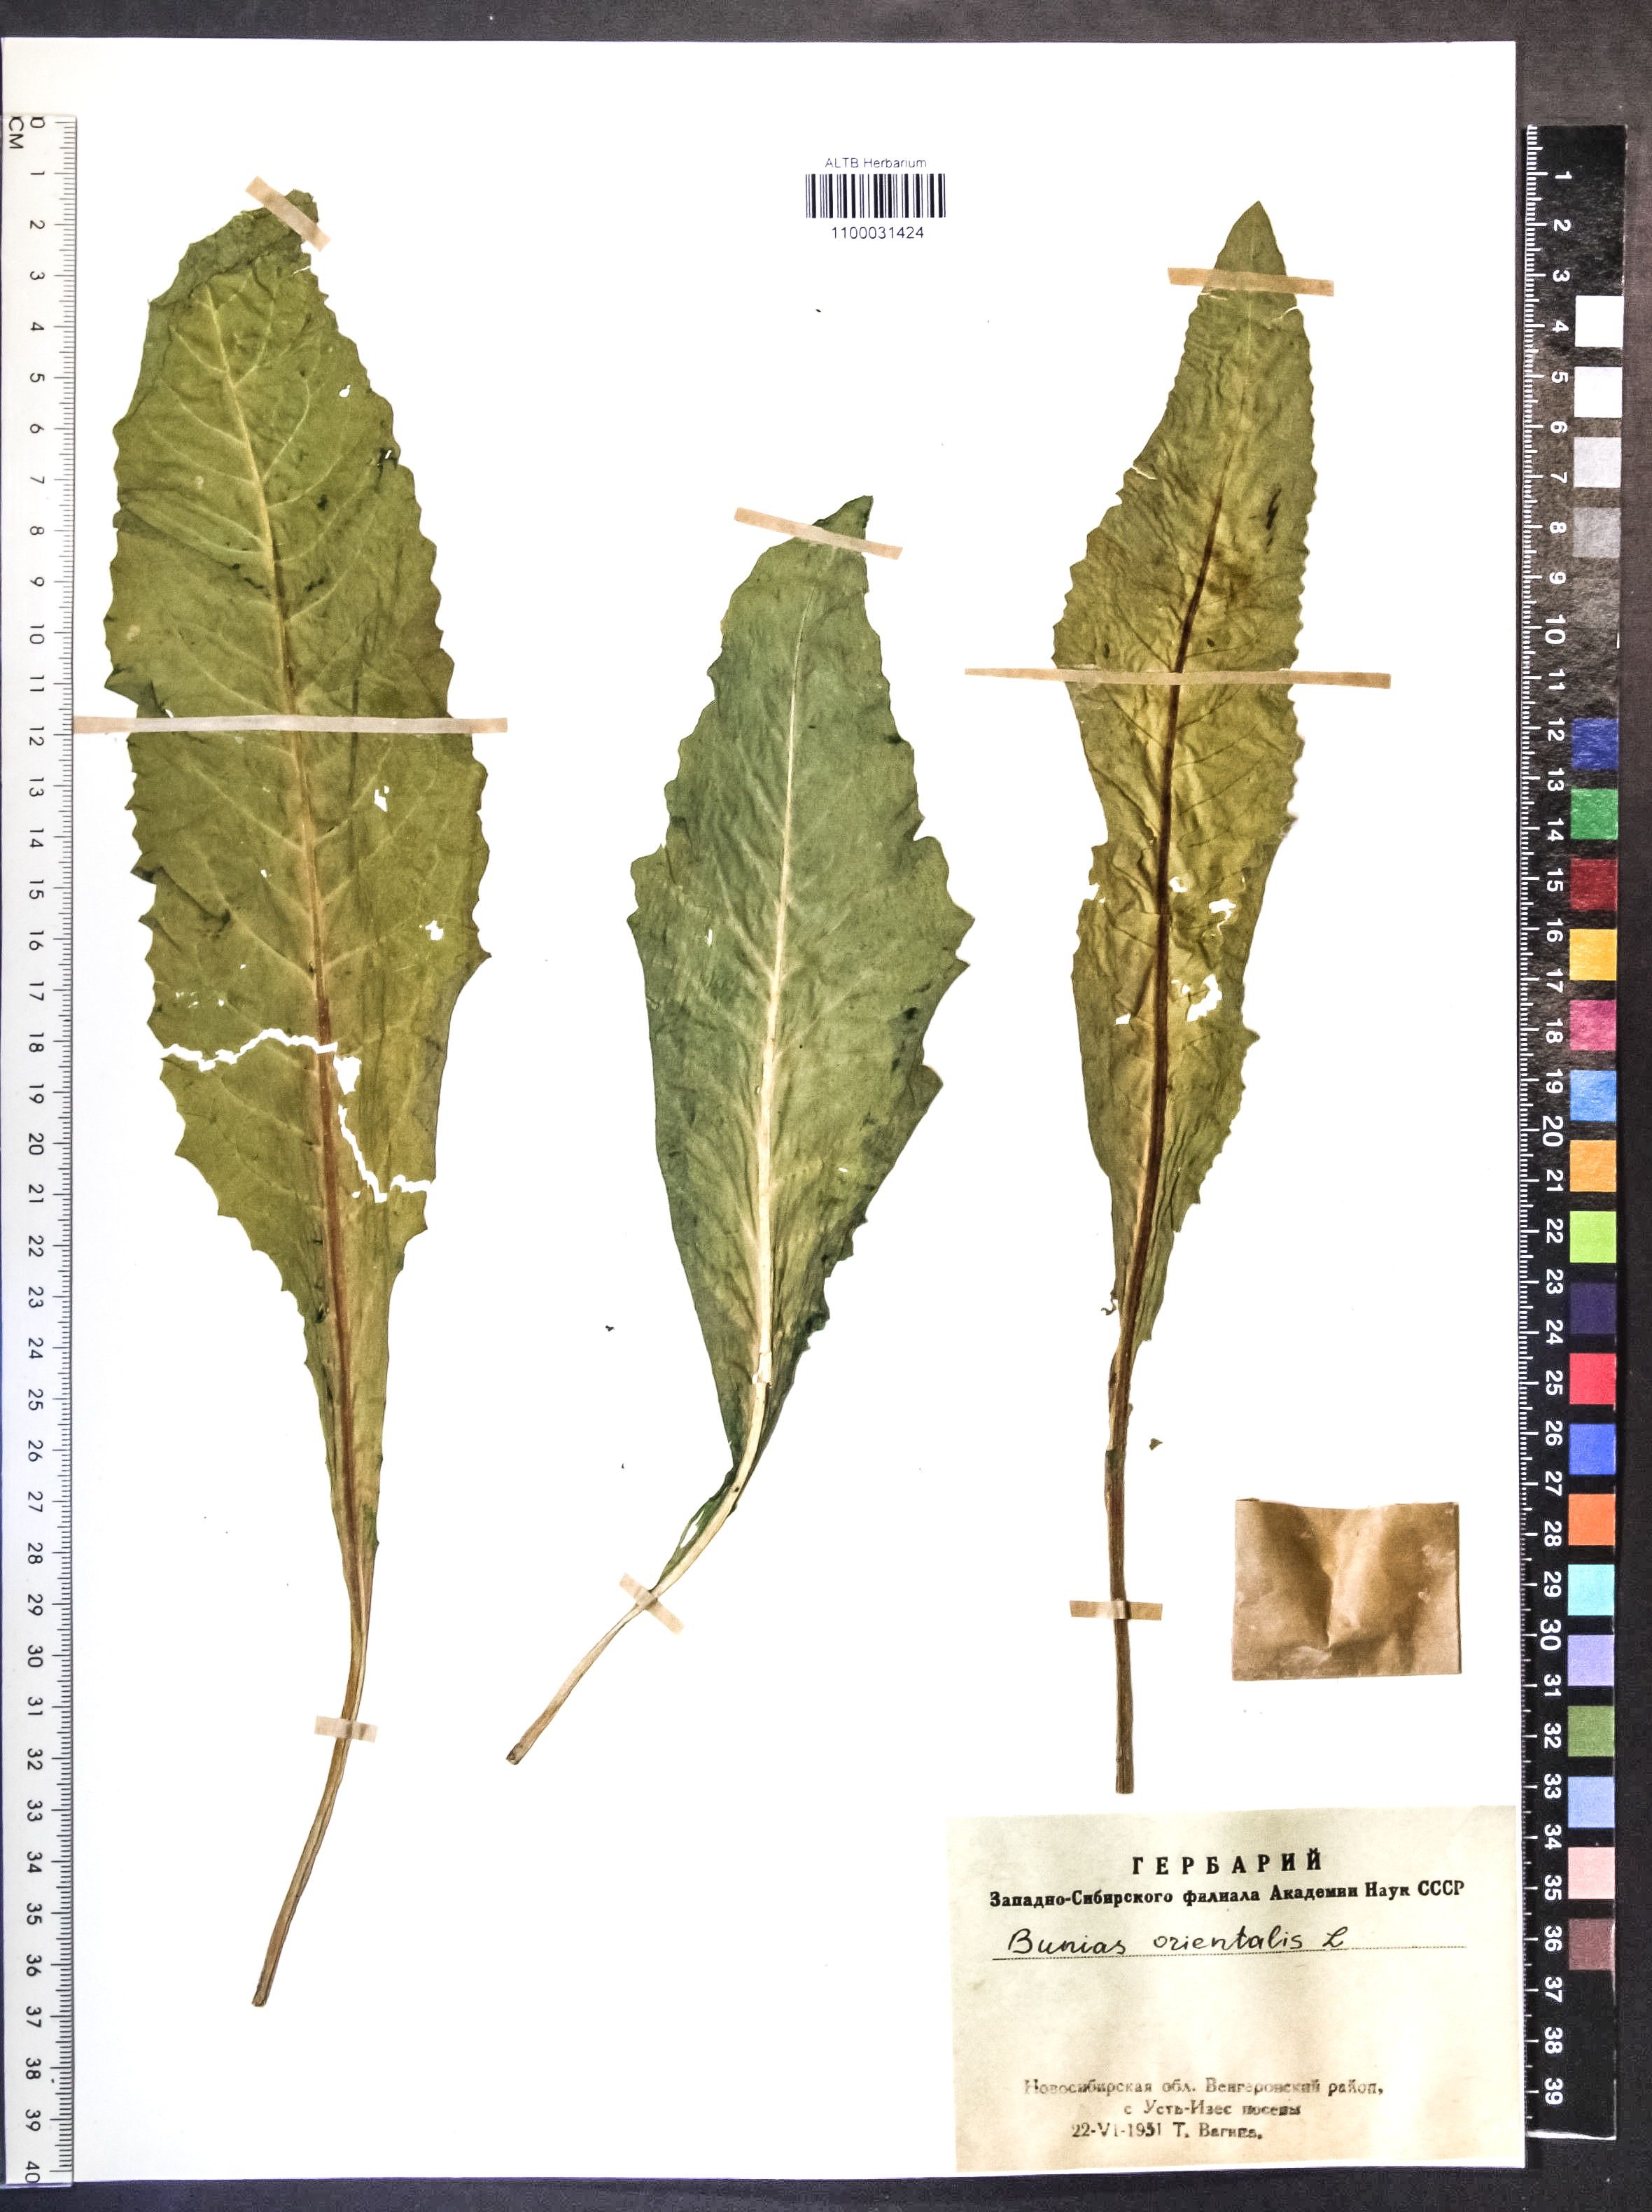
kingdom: Plantae
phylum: Tracheophyta
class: Magnoliopsida
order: Brassicales
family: Brassicaceae
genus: Bunias
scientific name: Bunias orientalis
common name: Warty-cabbage
